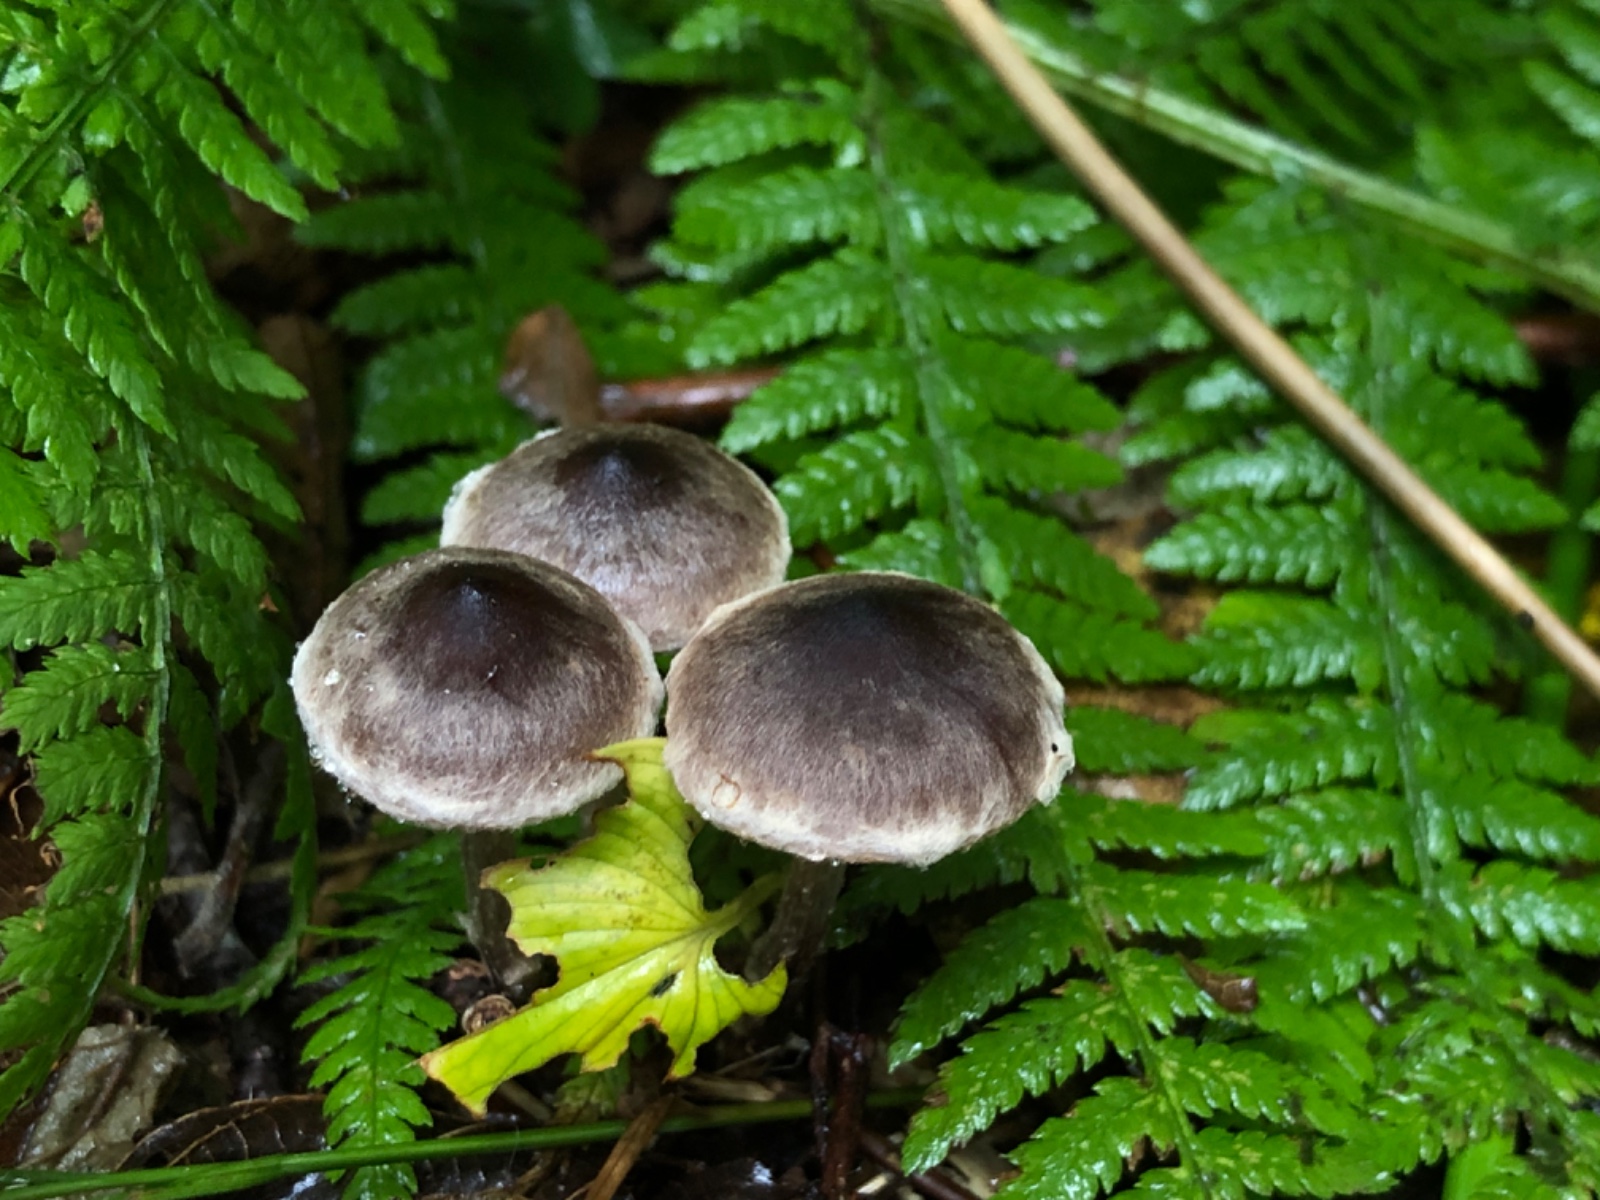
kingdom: Fungi
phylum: Basidiomycota
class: Agaricomycetes
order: Agaricales
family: Cortinariaceae
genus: Cortinarius
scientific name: Cortinarius decipiens
